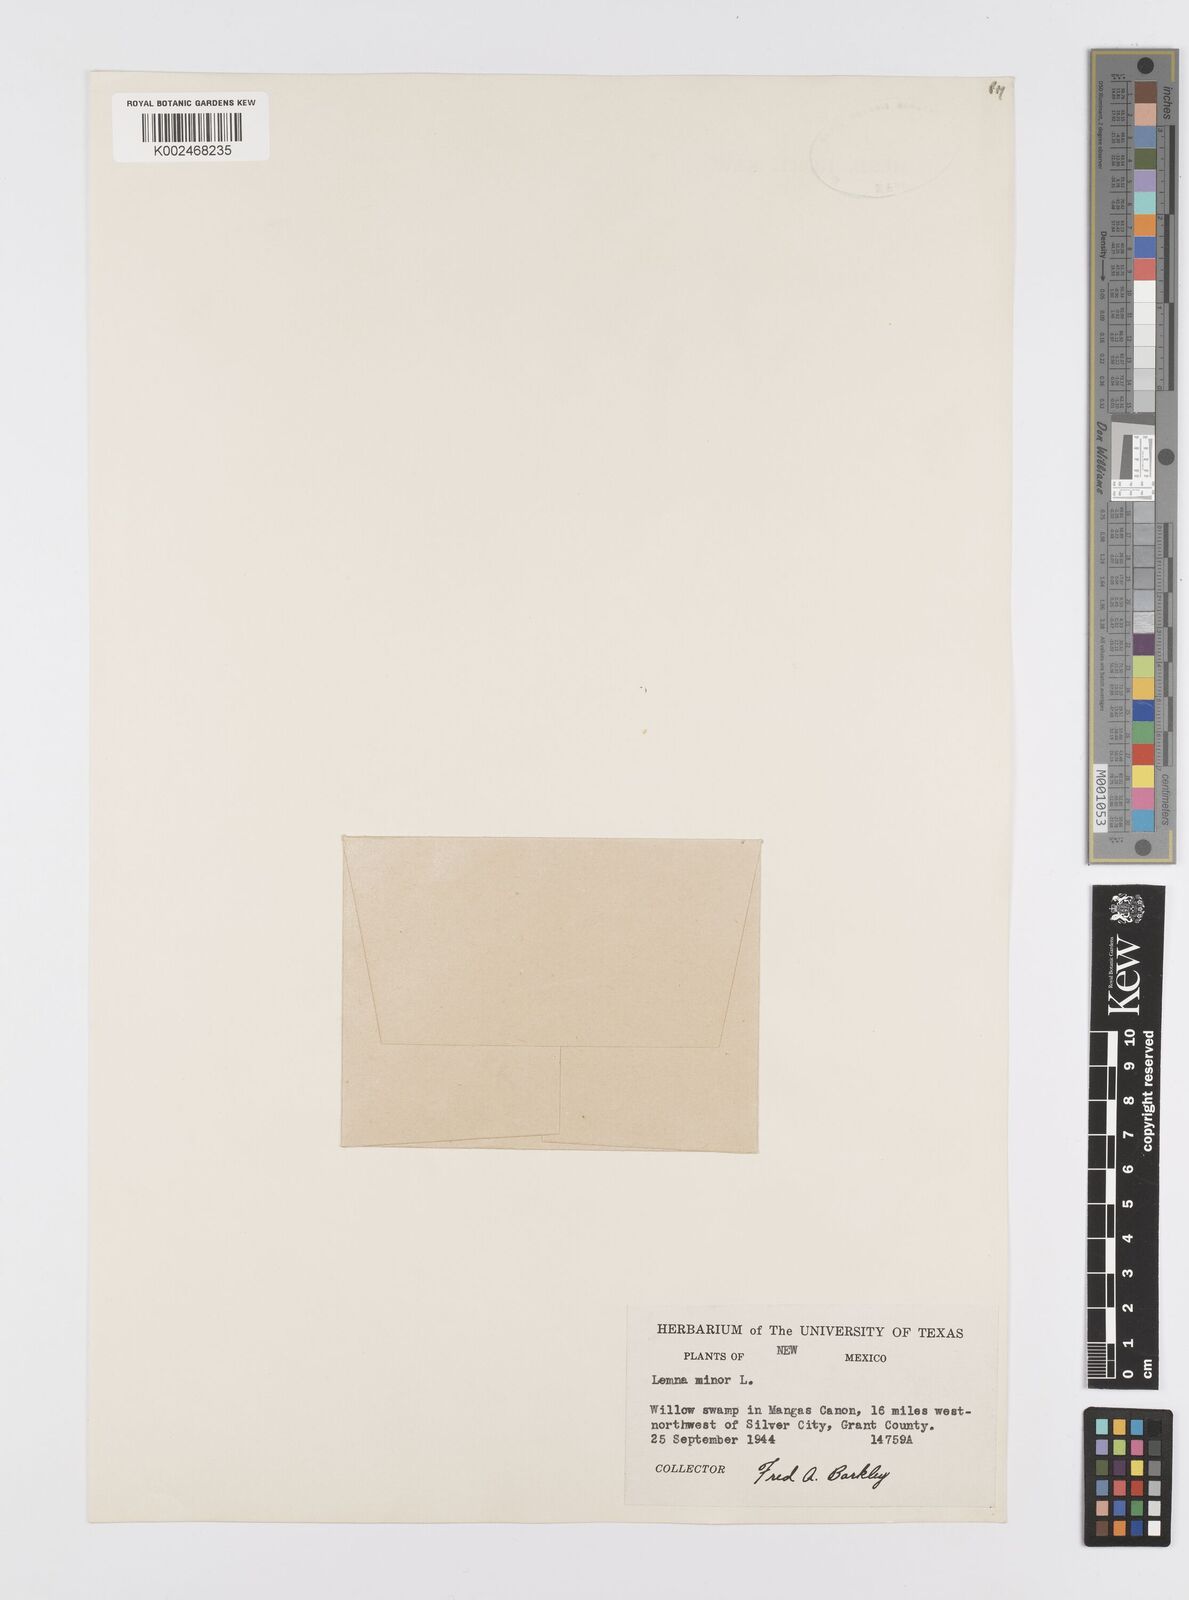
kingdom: Plantae
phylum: Tracheophyta
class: Liliopsida
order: Alismatales
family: Araceae
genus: Lemna
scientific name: Lemna minor
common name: Common duckweed
